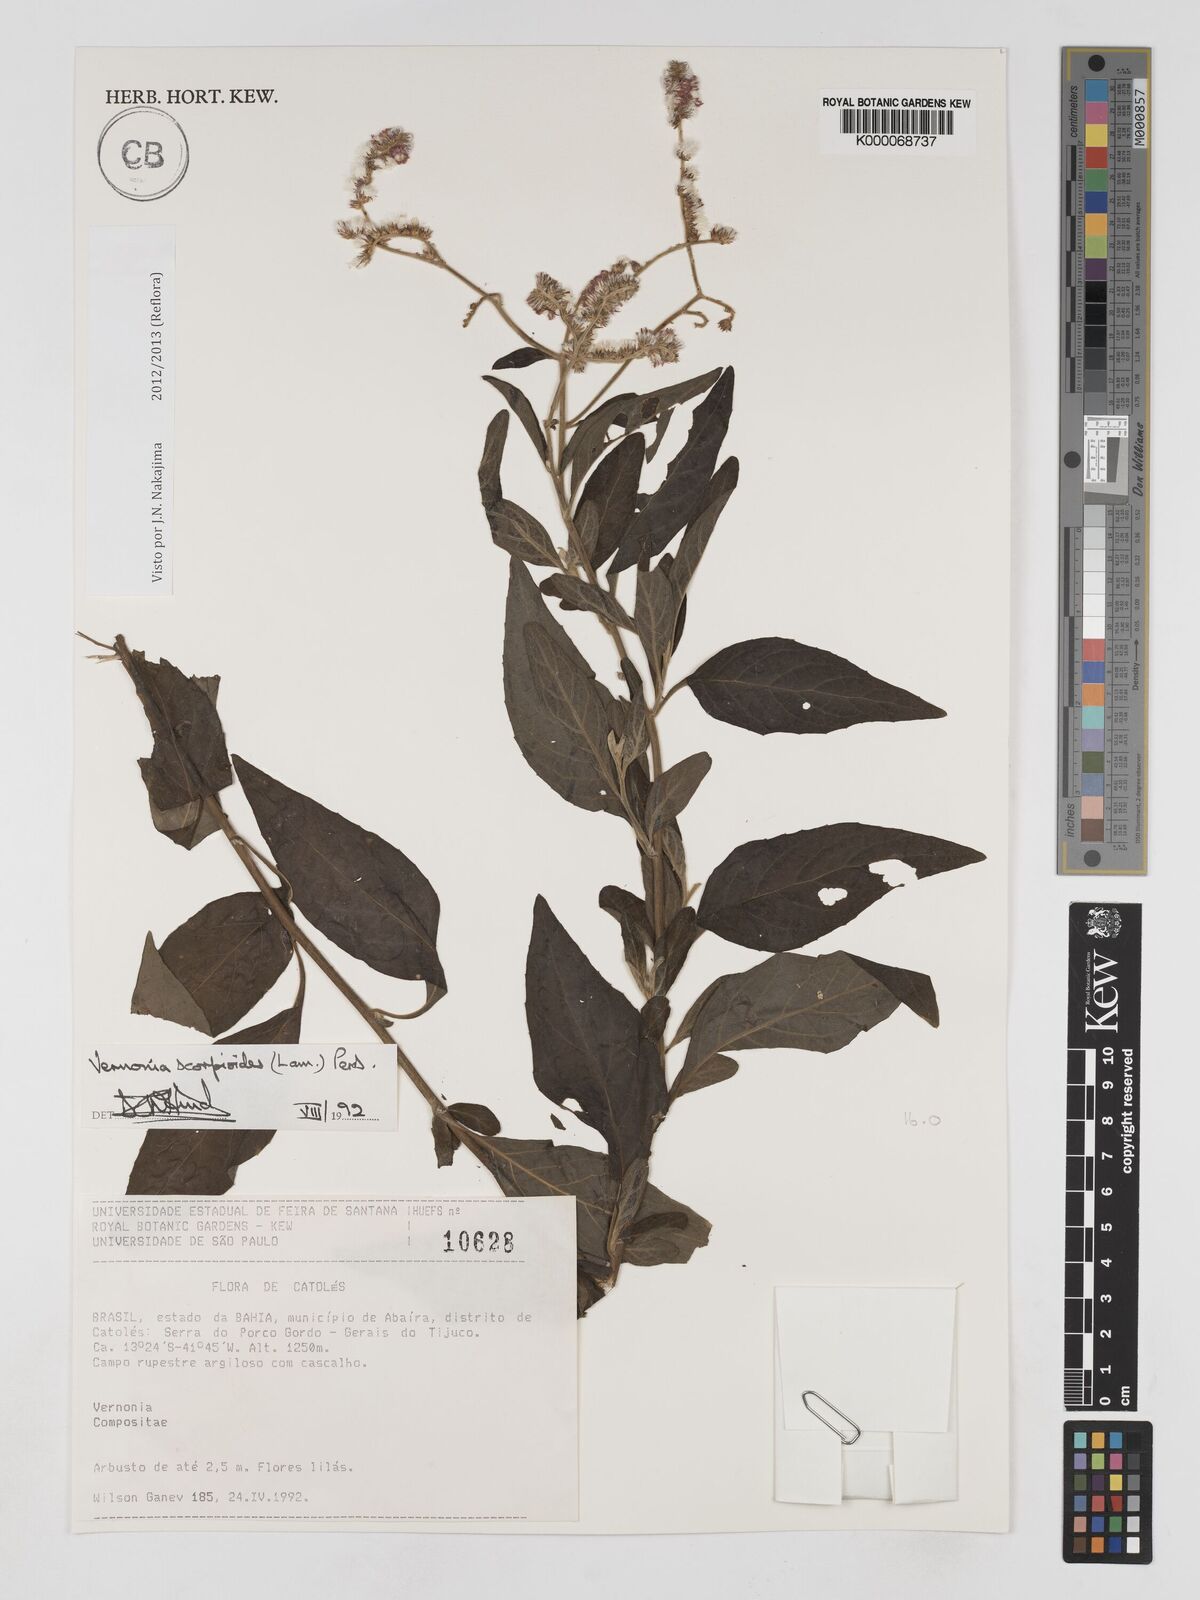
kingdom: Plantae
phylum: Tracheophyta
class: Magnoliopsida
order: Asterales
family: Asteraceae
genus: Cyrtocymura
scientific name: Cyrtocymura scorpioides
